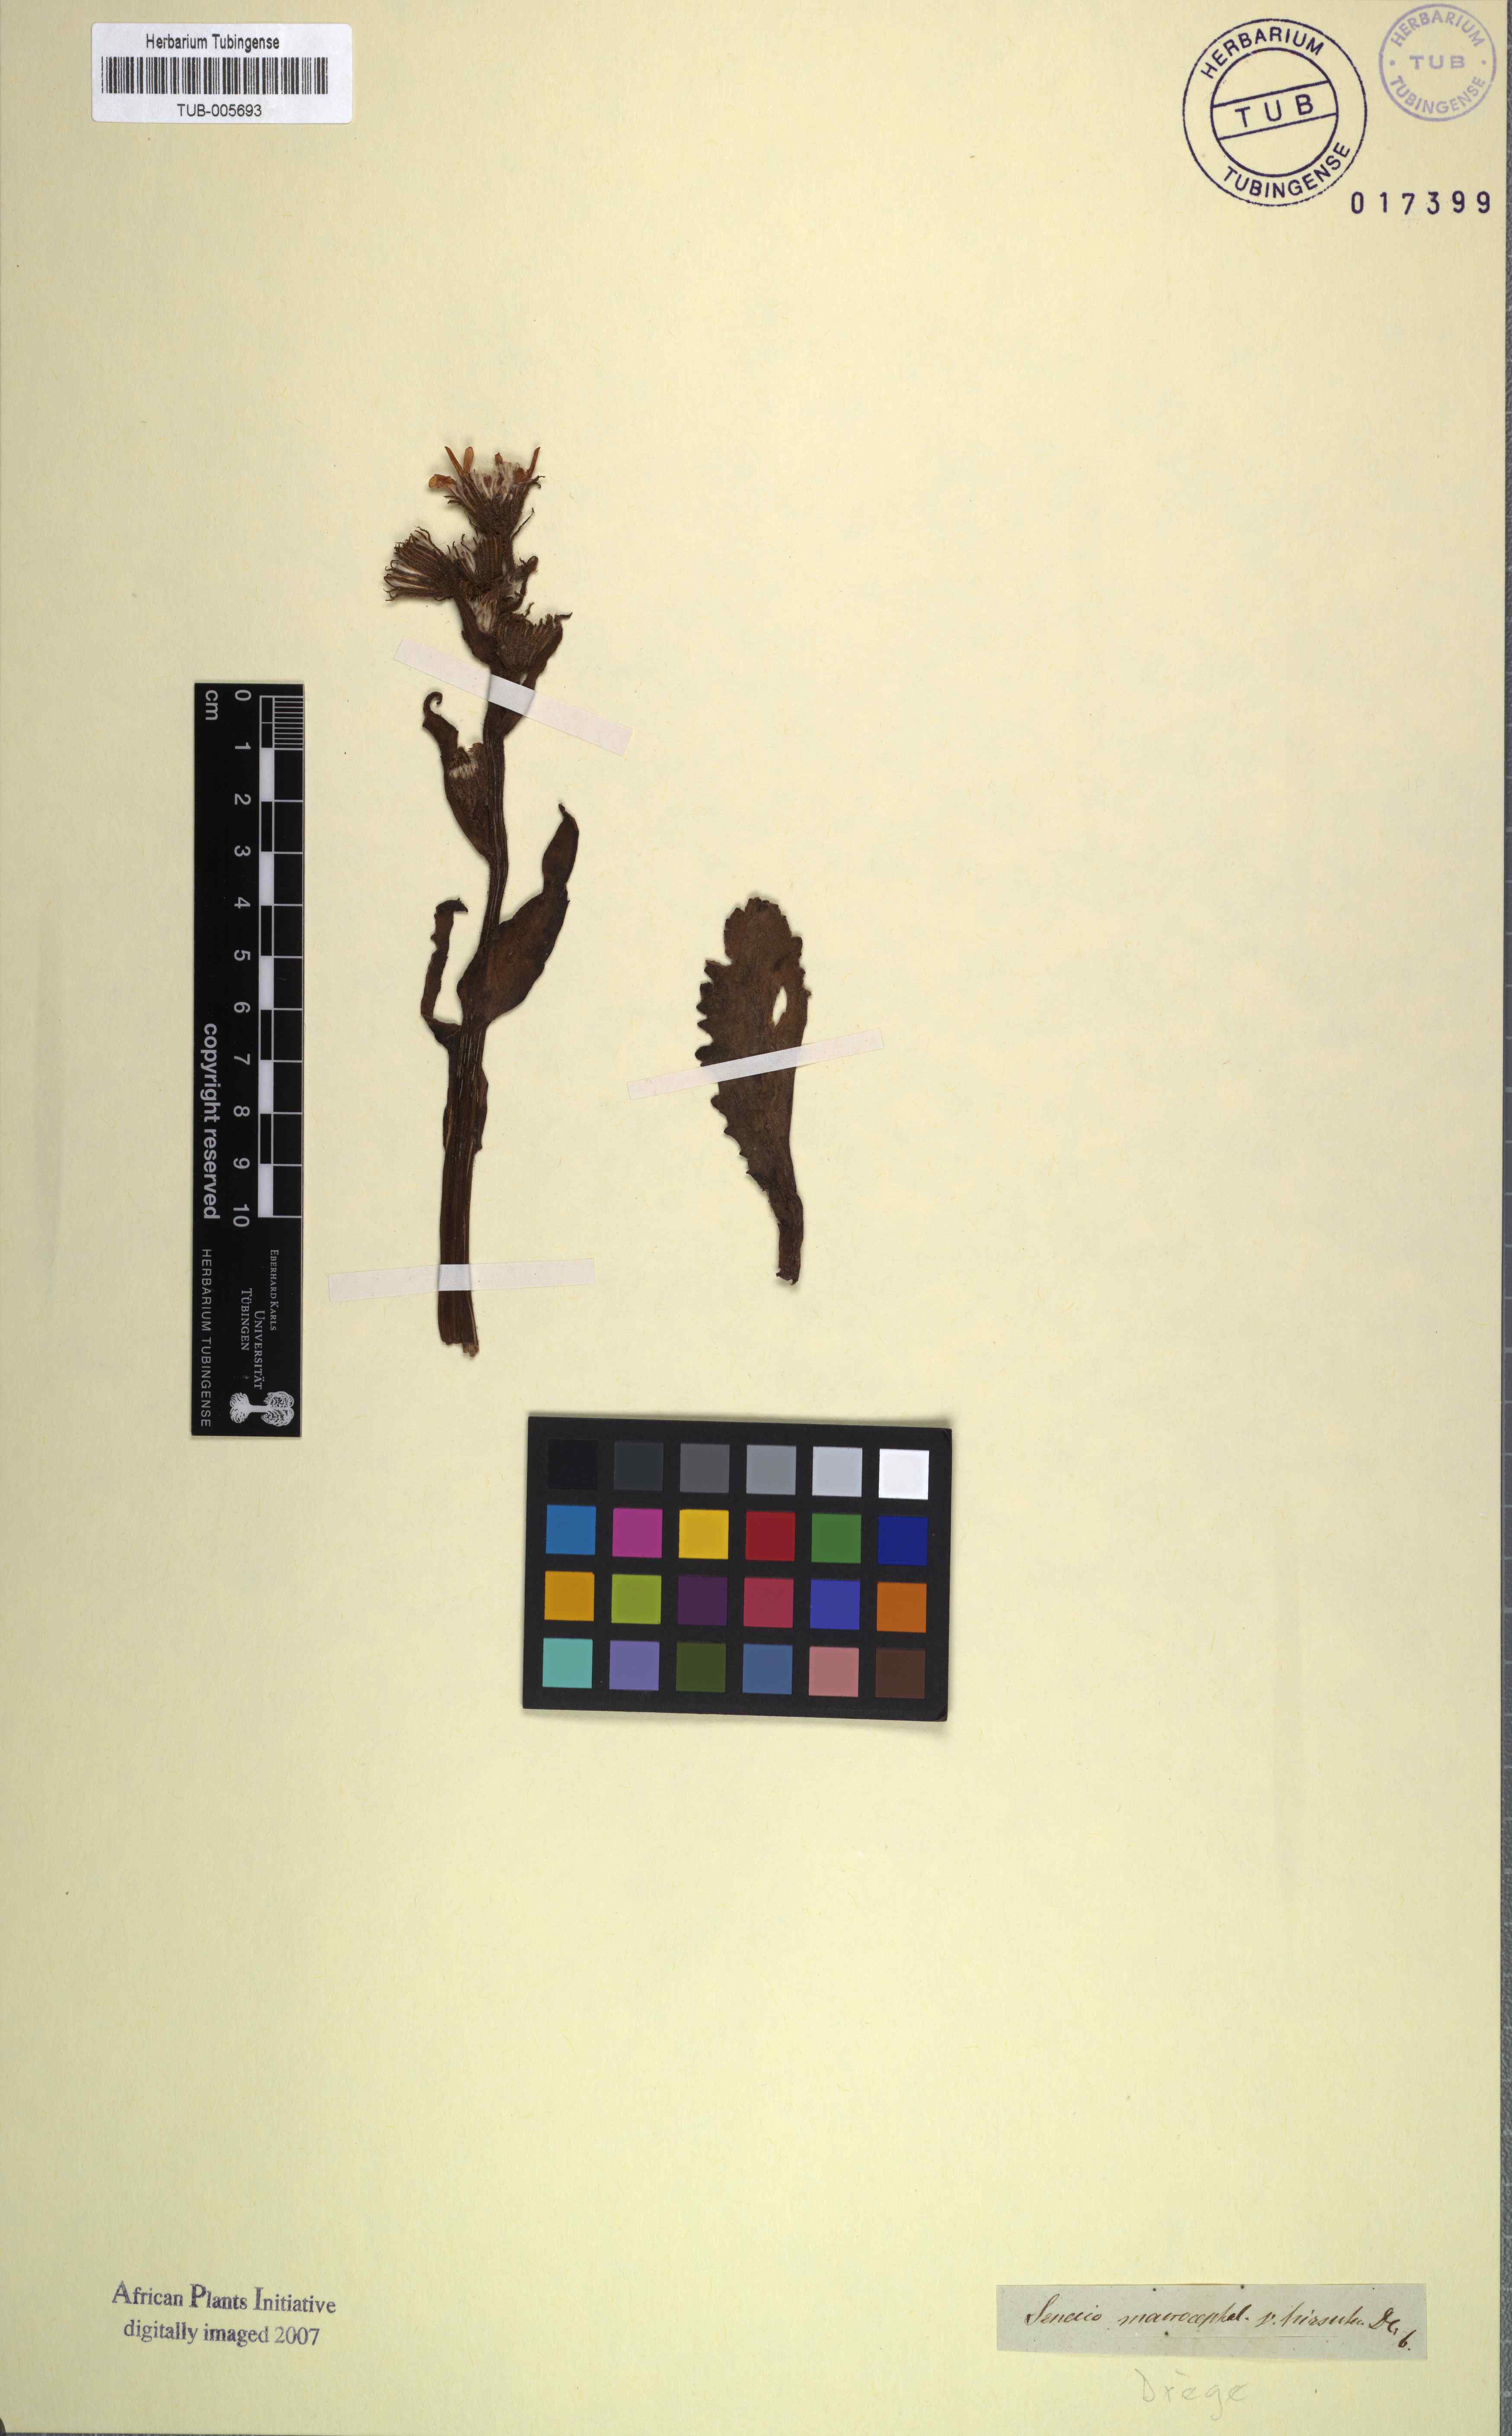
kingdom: Plantae
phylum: Tracheophyta
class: Magnoliopsida
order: Asterales
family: Asteraceae
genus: Senecio
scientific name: Senecio macrocephalus
